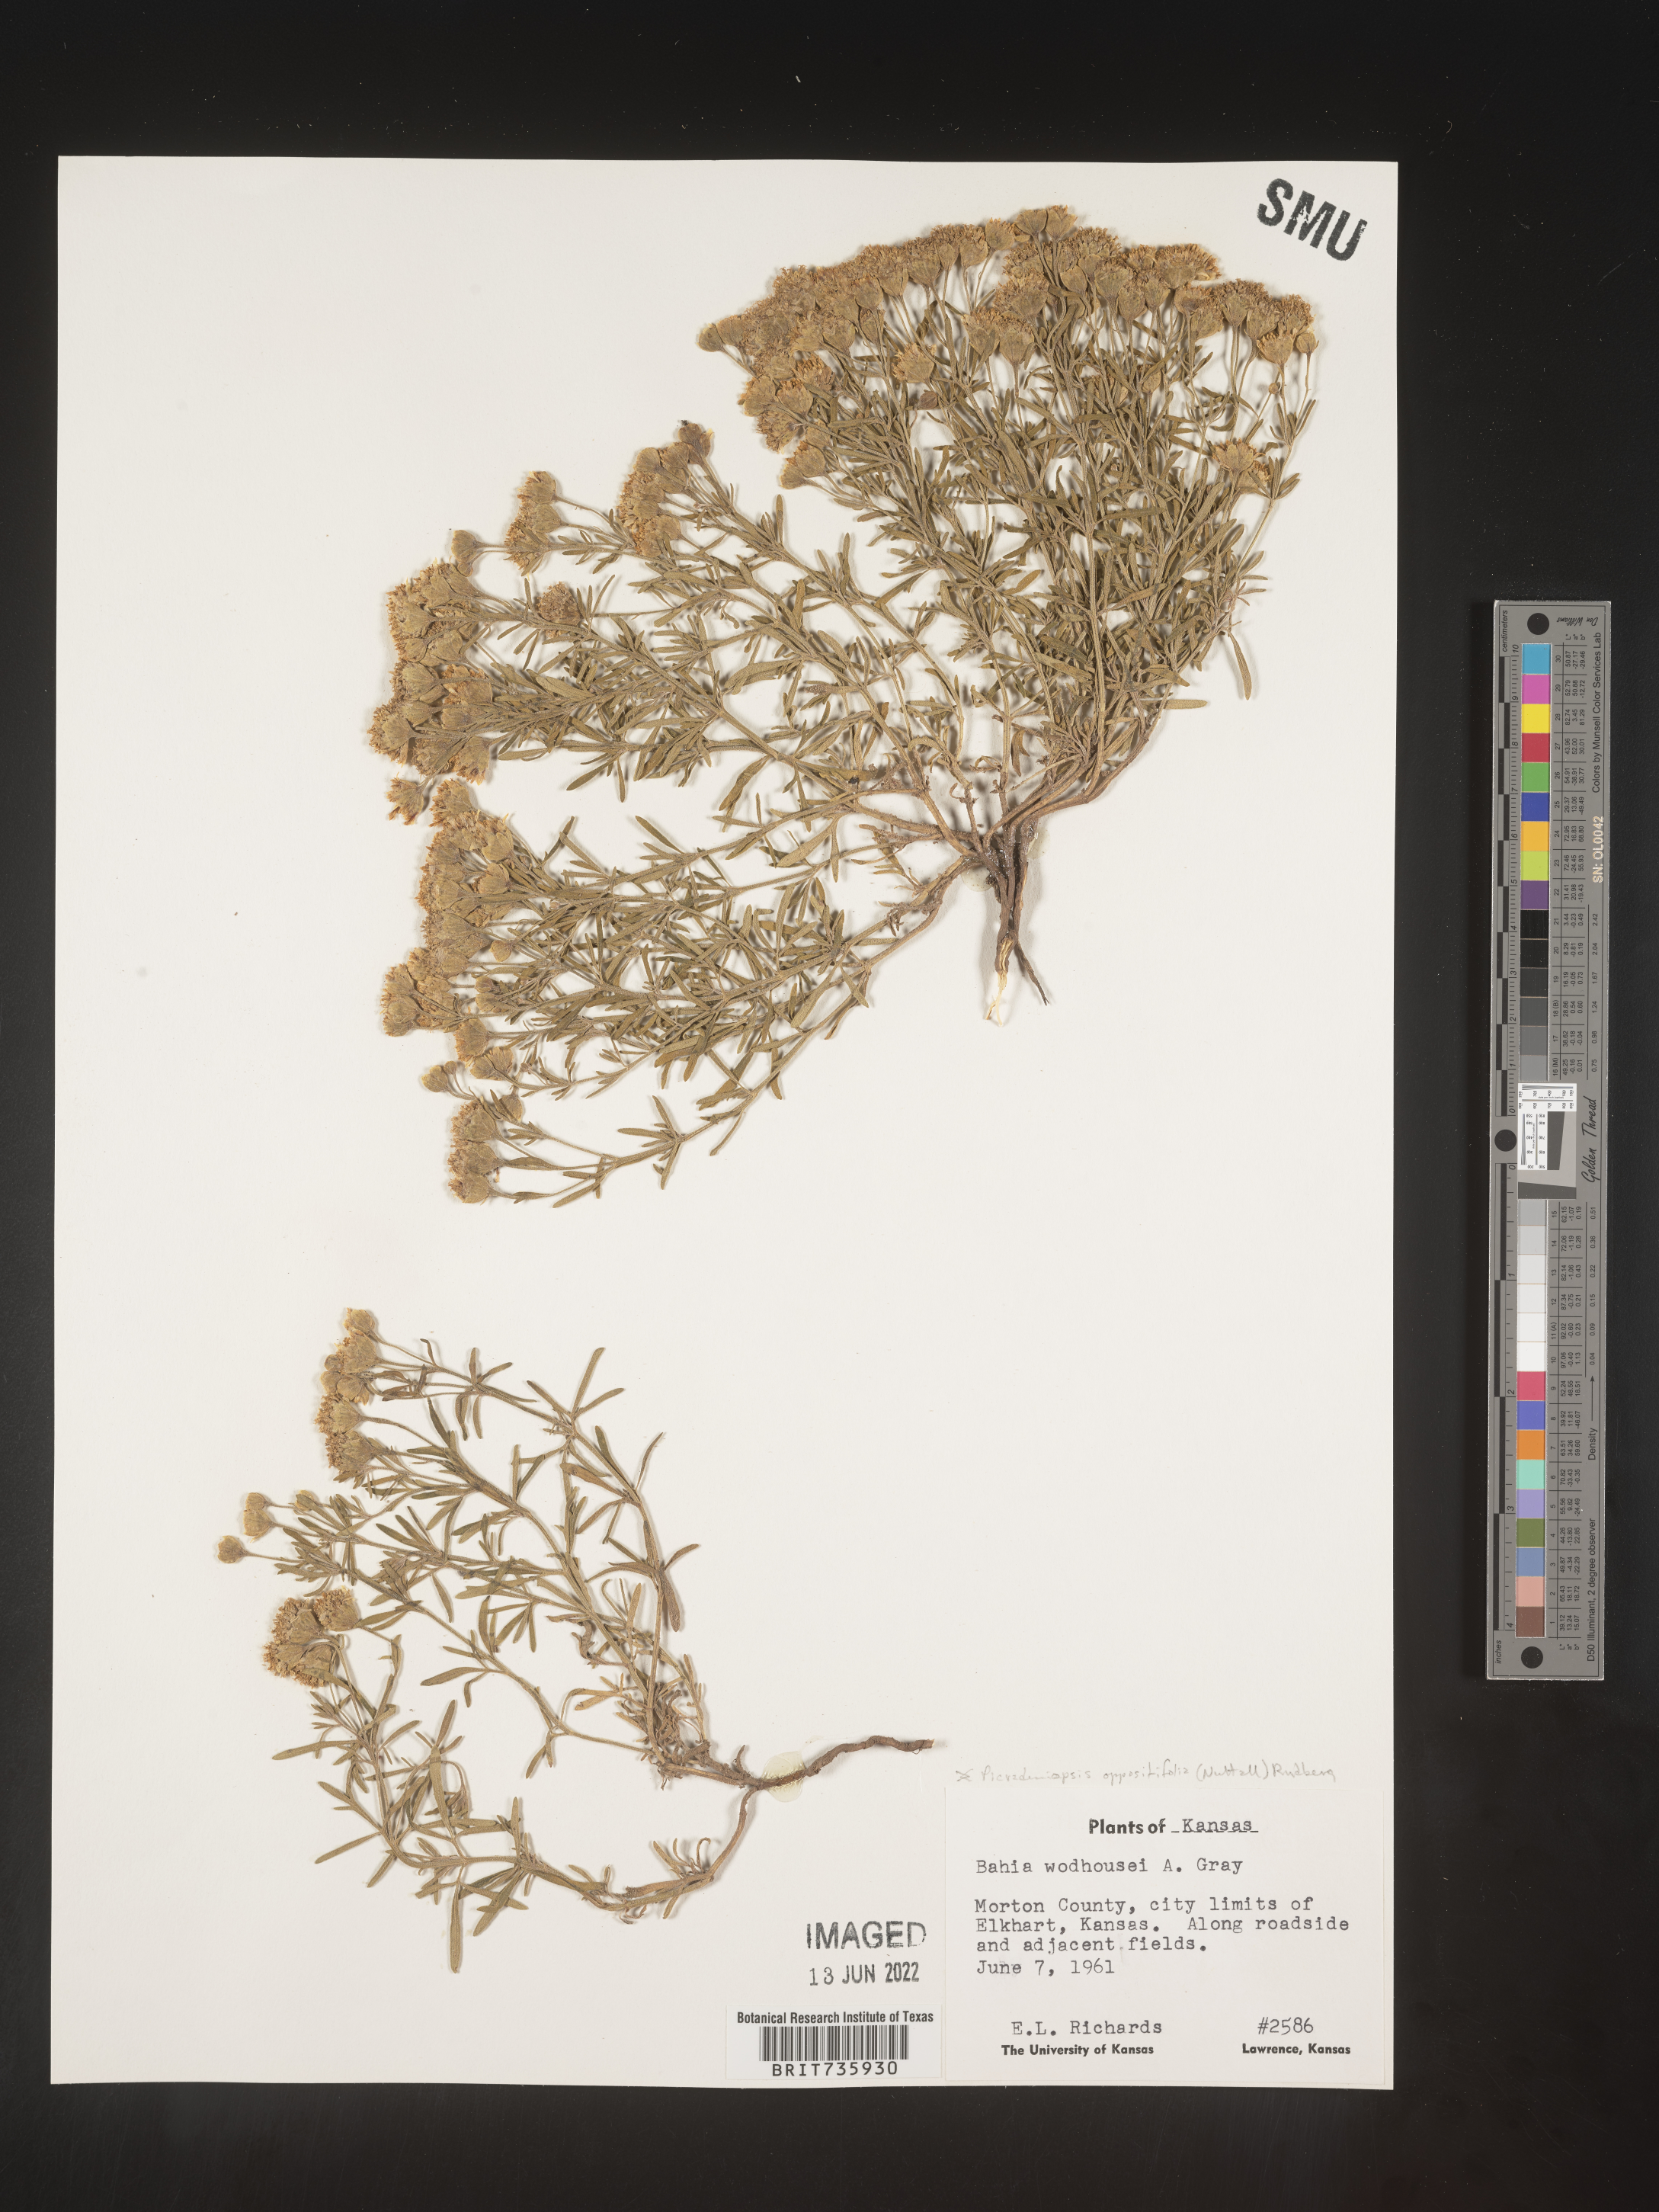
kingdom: Plantae
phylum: Tracheophyta
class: Magnoliopsida
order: Asterales
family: Asteraceae
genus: Bahia
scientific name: Bahia oppositifolia
